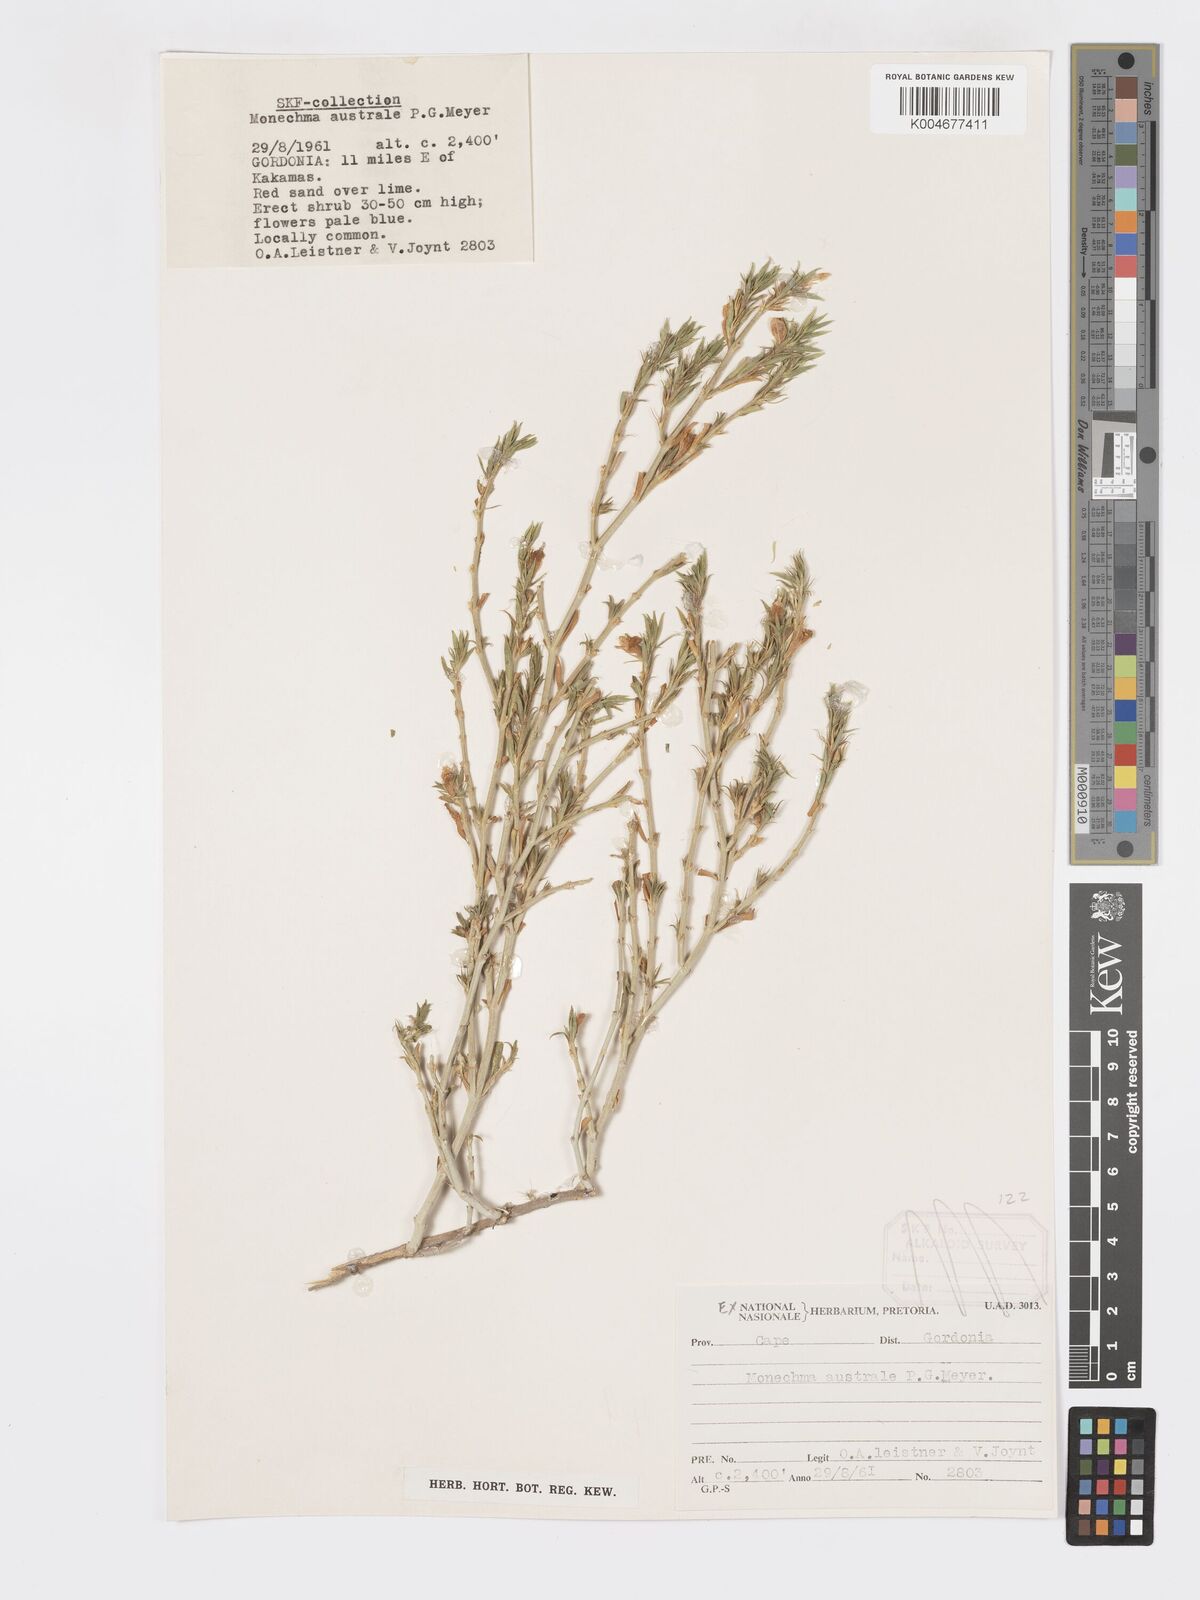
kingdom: Plantae
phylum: Tracheophyta
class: Magnoliopsida
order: Lamiales
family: Acanthaceae
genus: Pogonospermum
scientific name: Pogonospermum
